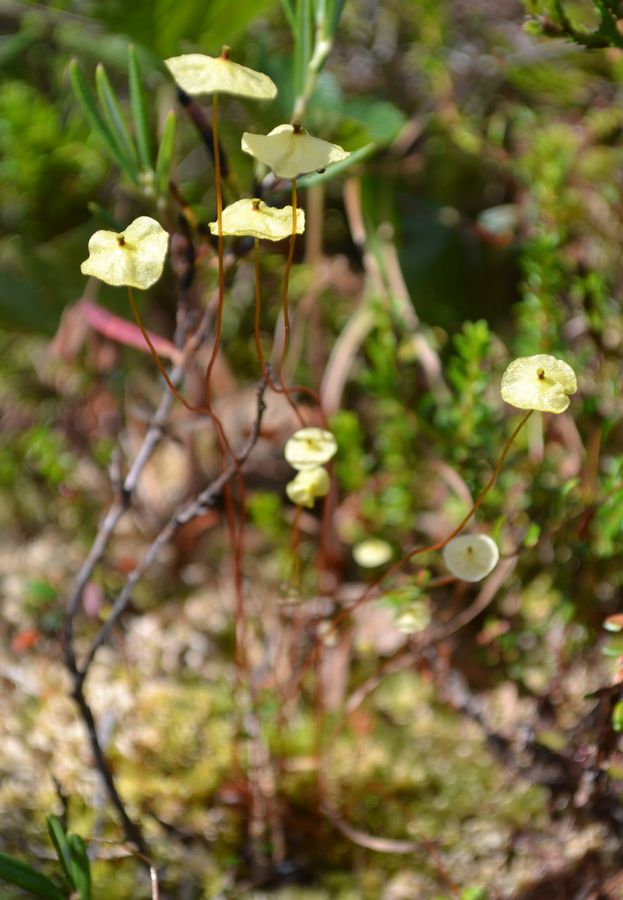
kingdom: Plantae
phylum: Bryophyta
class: Bryopsida
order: Splachnales
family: Splachnaceae
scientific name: Splachnaceae
